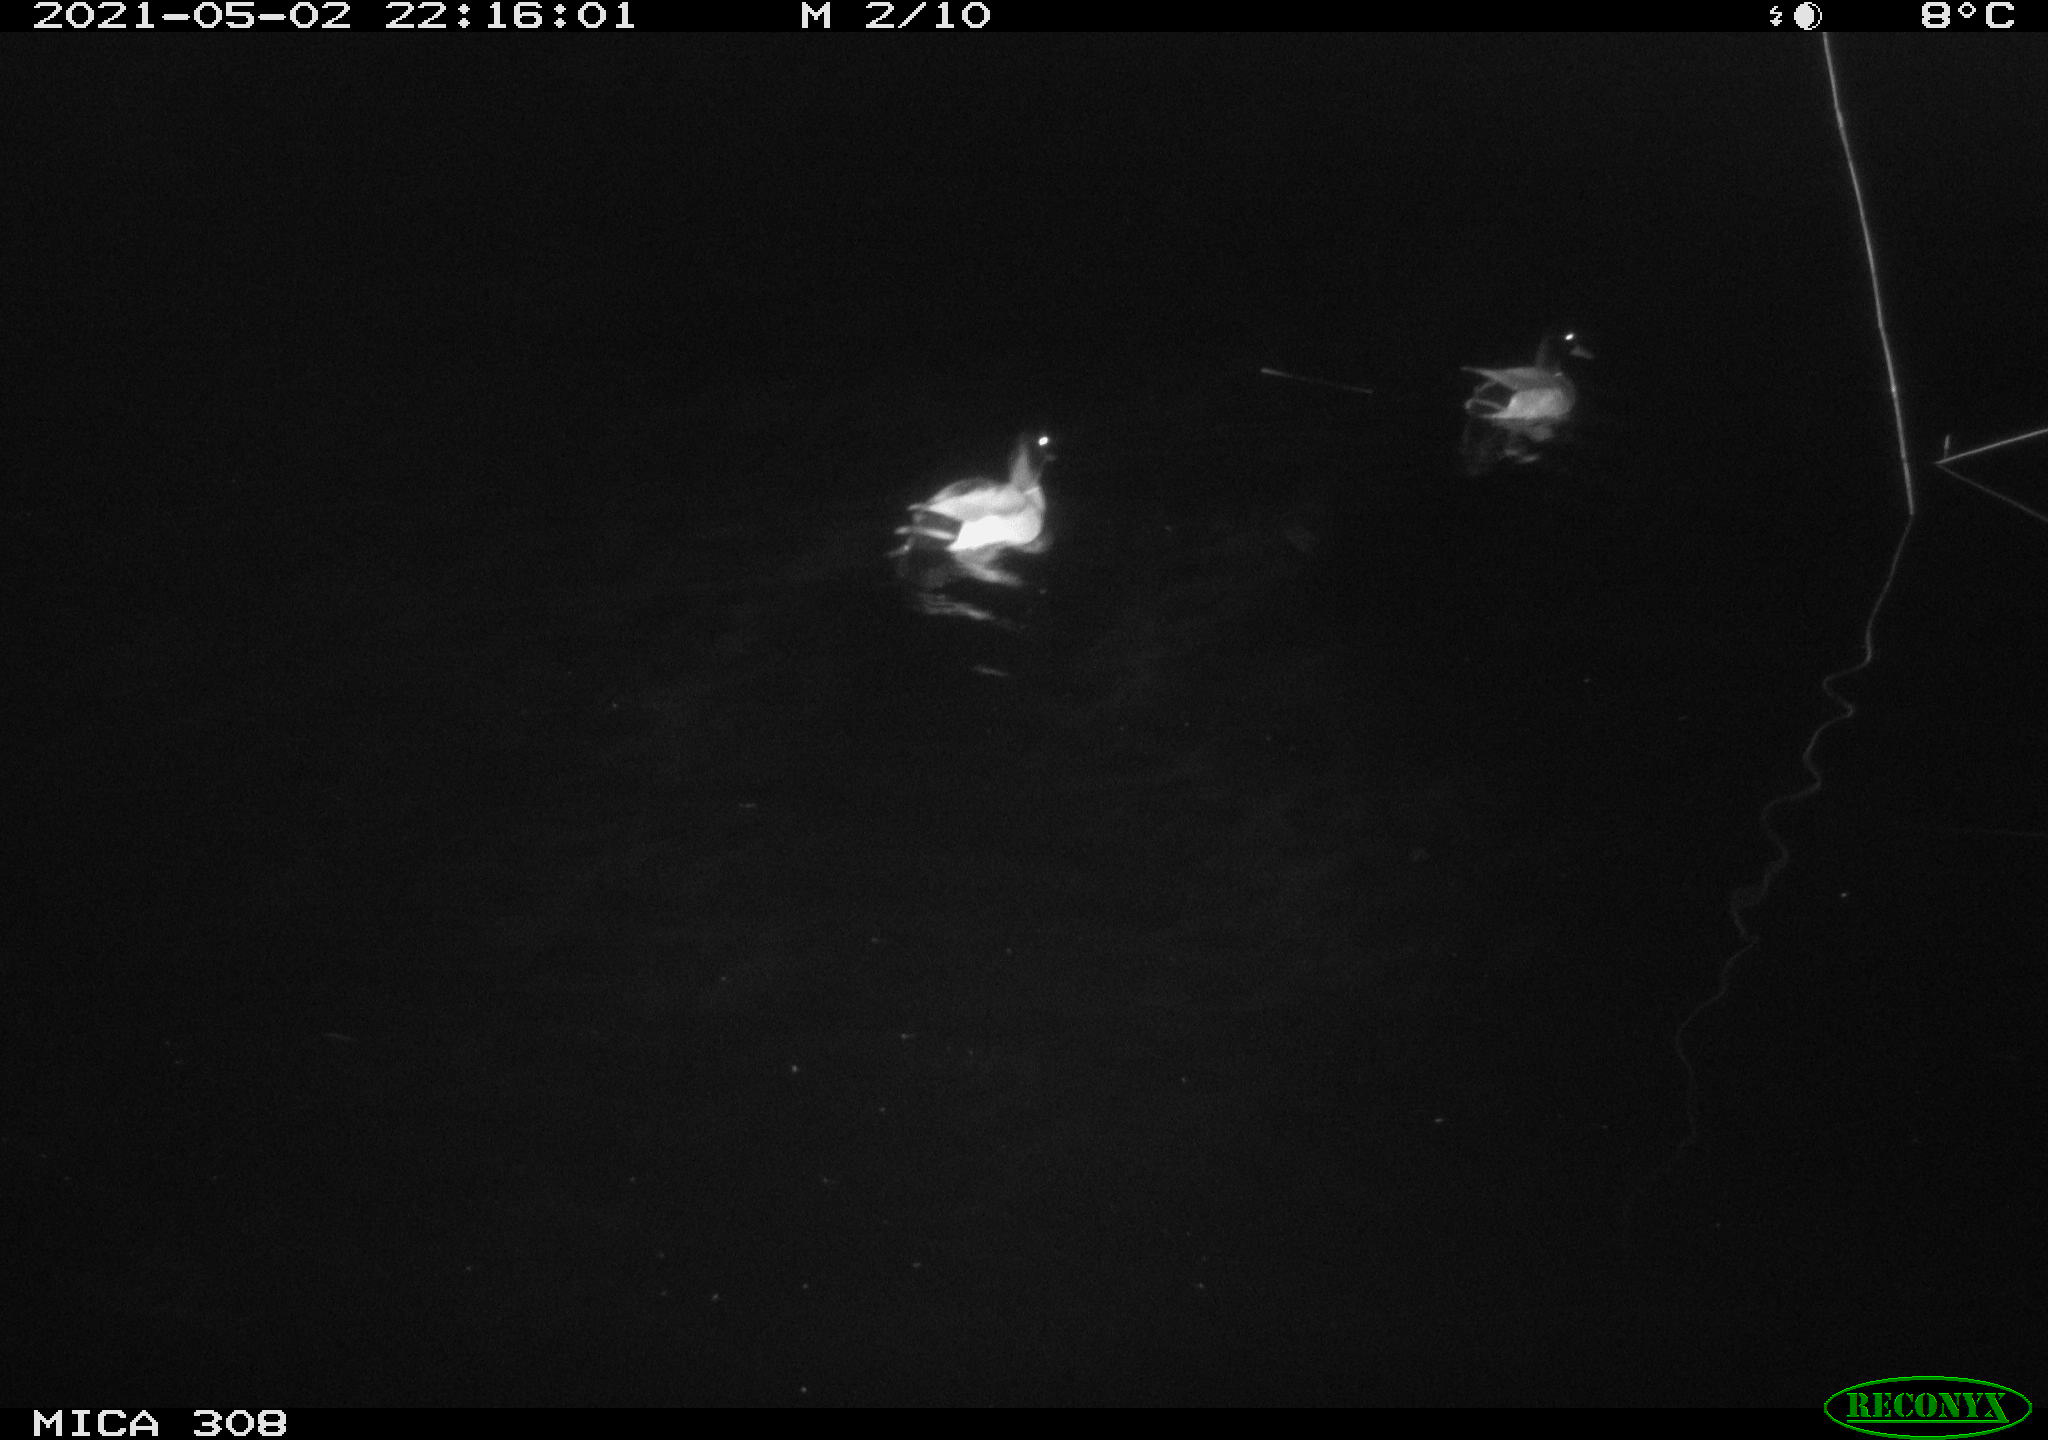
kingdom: Animalia
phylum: Chordata
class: Aves
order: Anseriformes
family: Anatidae
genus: Anas
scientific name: Anas platyrhynchos
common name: Mallard
